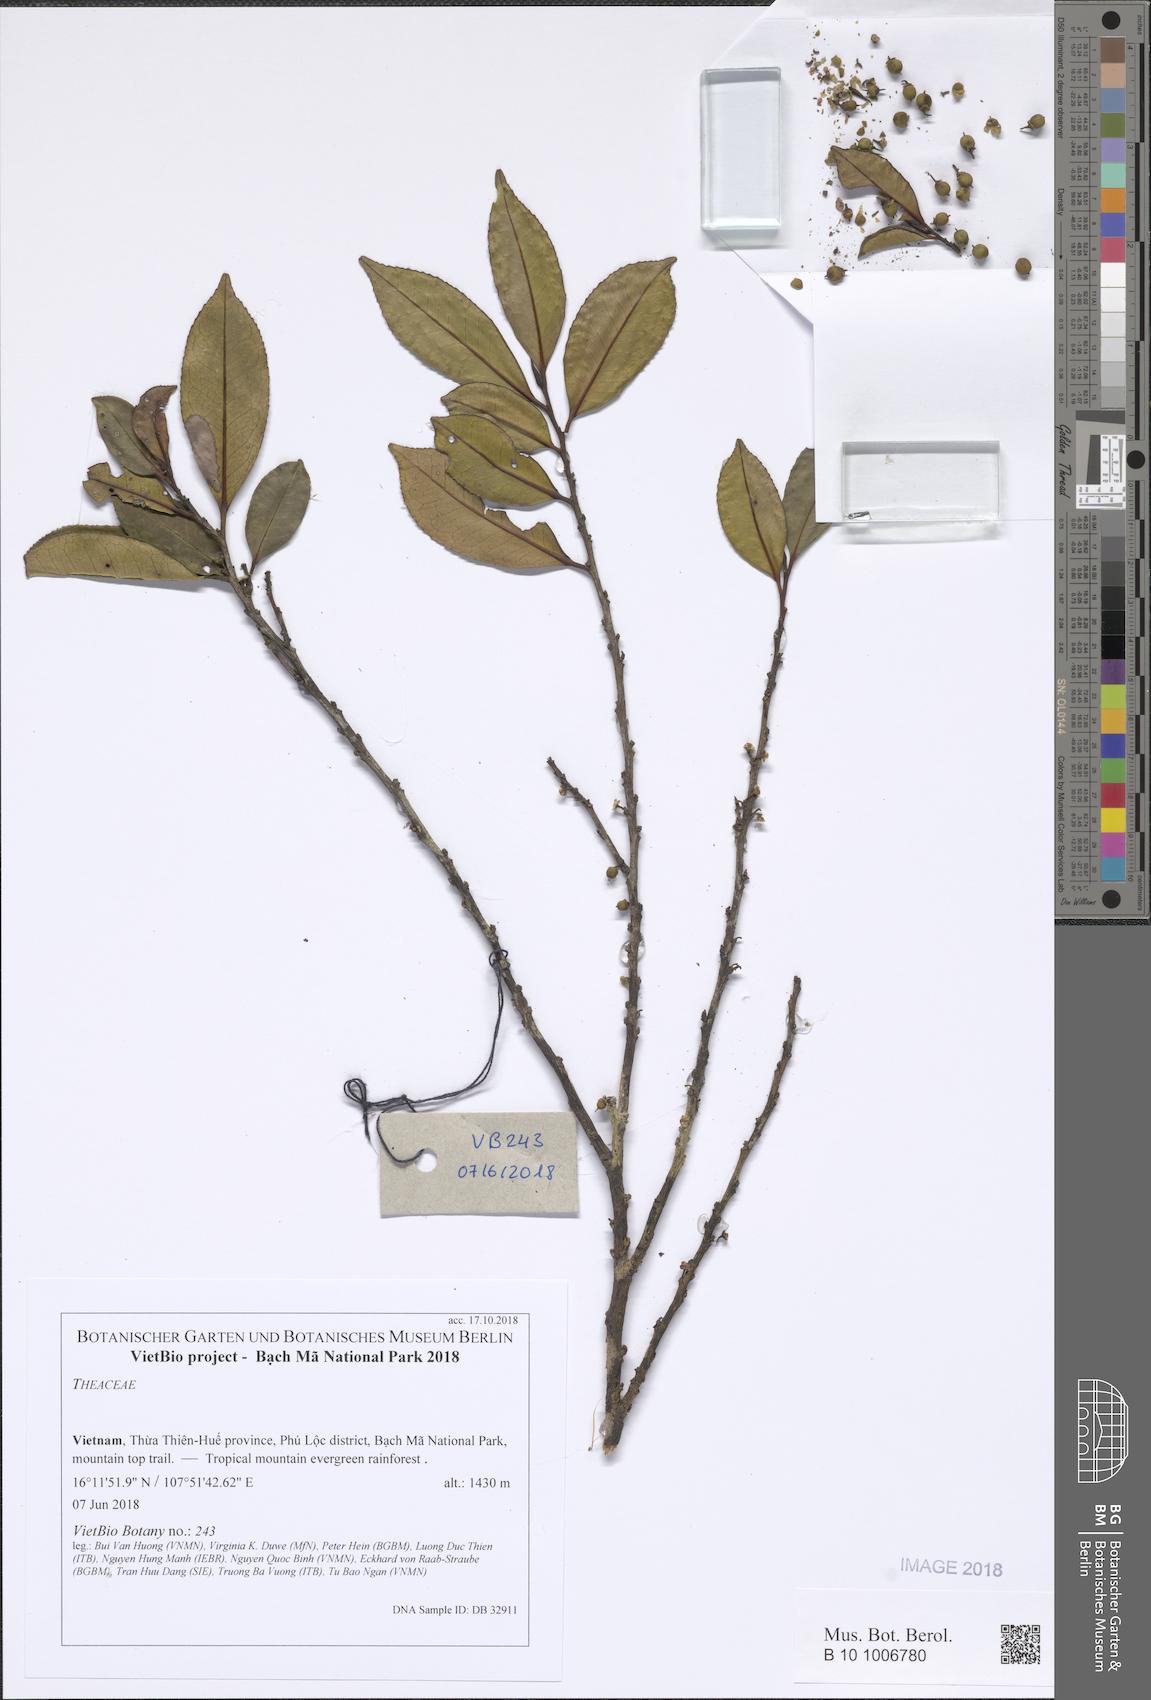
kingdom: Plantae
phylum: Tracheophyta
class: Magnoliopsida
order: Ericales
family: Pentaphylacaceae
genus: Eurya
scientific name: Eurya japonica
